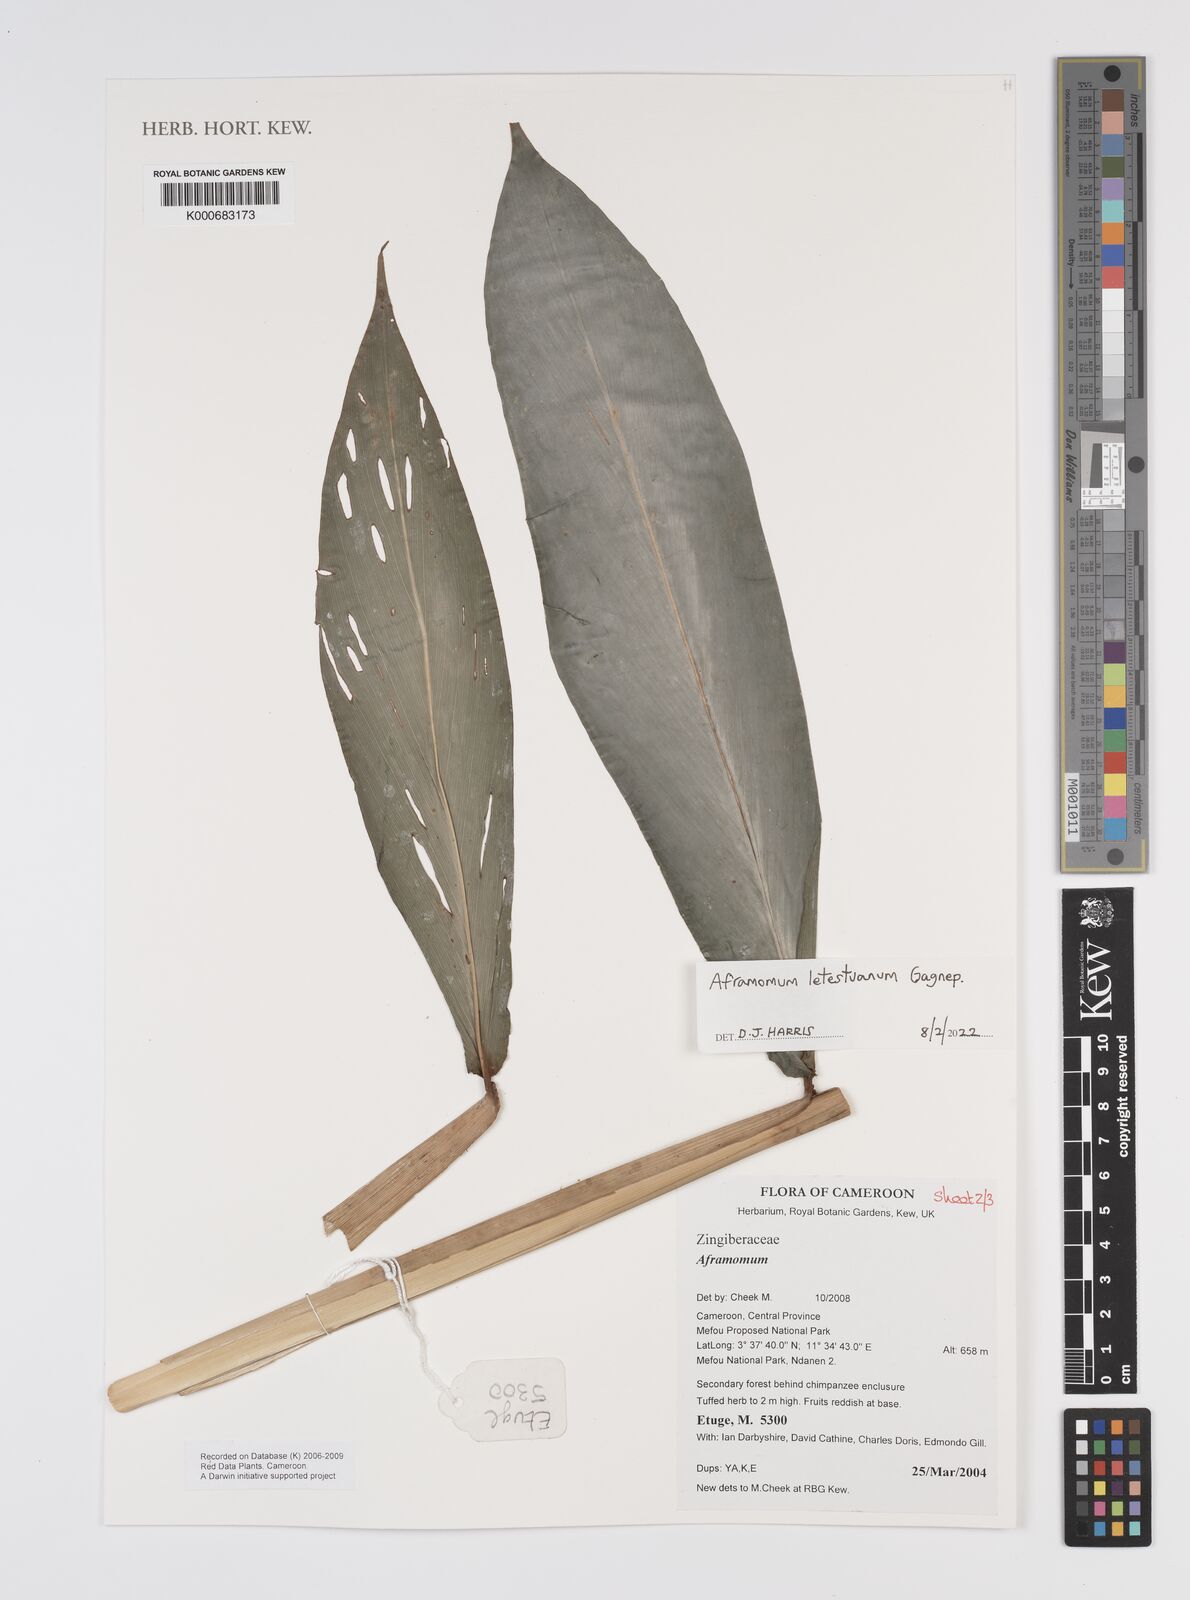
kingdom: Plantae
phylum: Tracheophyta
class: Liliopsida
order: Zingiberales
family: Zingiberaceae
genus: Aframomum
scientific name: Aframomum
